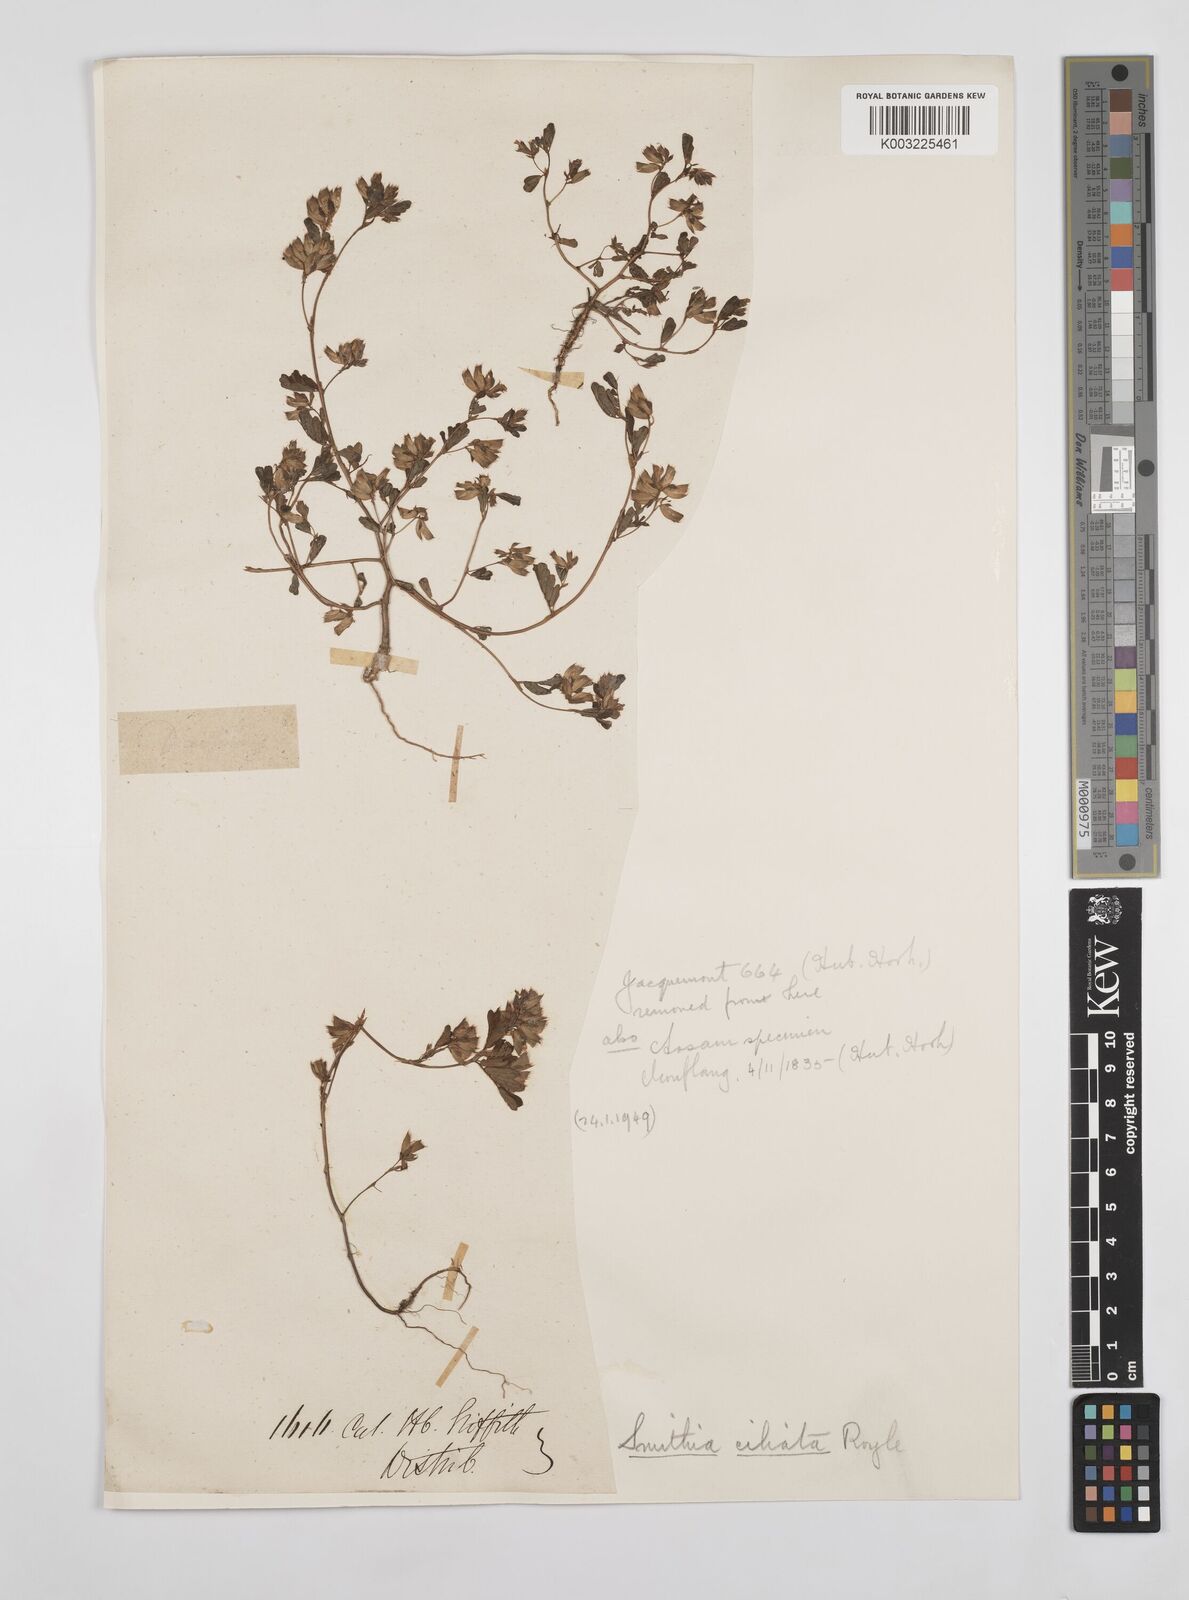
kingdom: Plantae
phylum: Tracheophyta
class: Magnoliopsida
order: Fabales
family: Fabaceae
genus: Smithia
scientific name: Smithia ciliata
